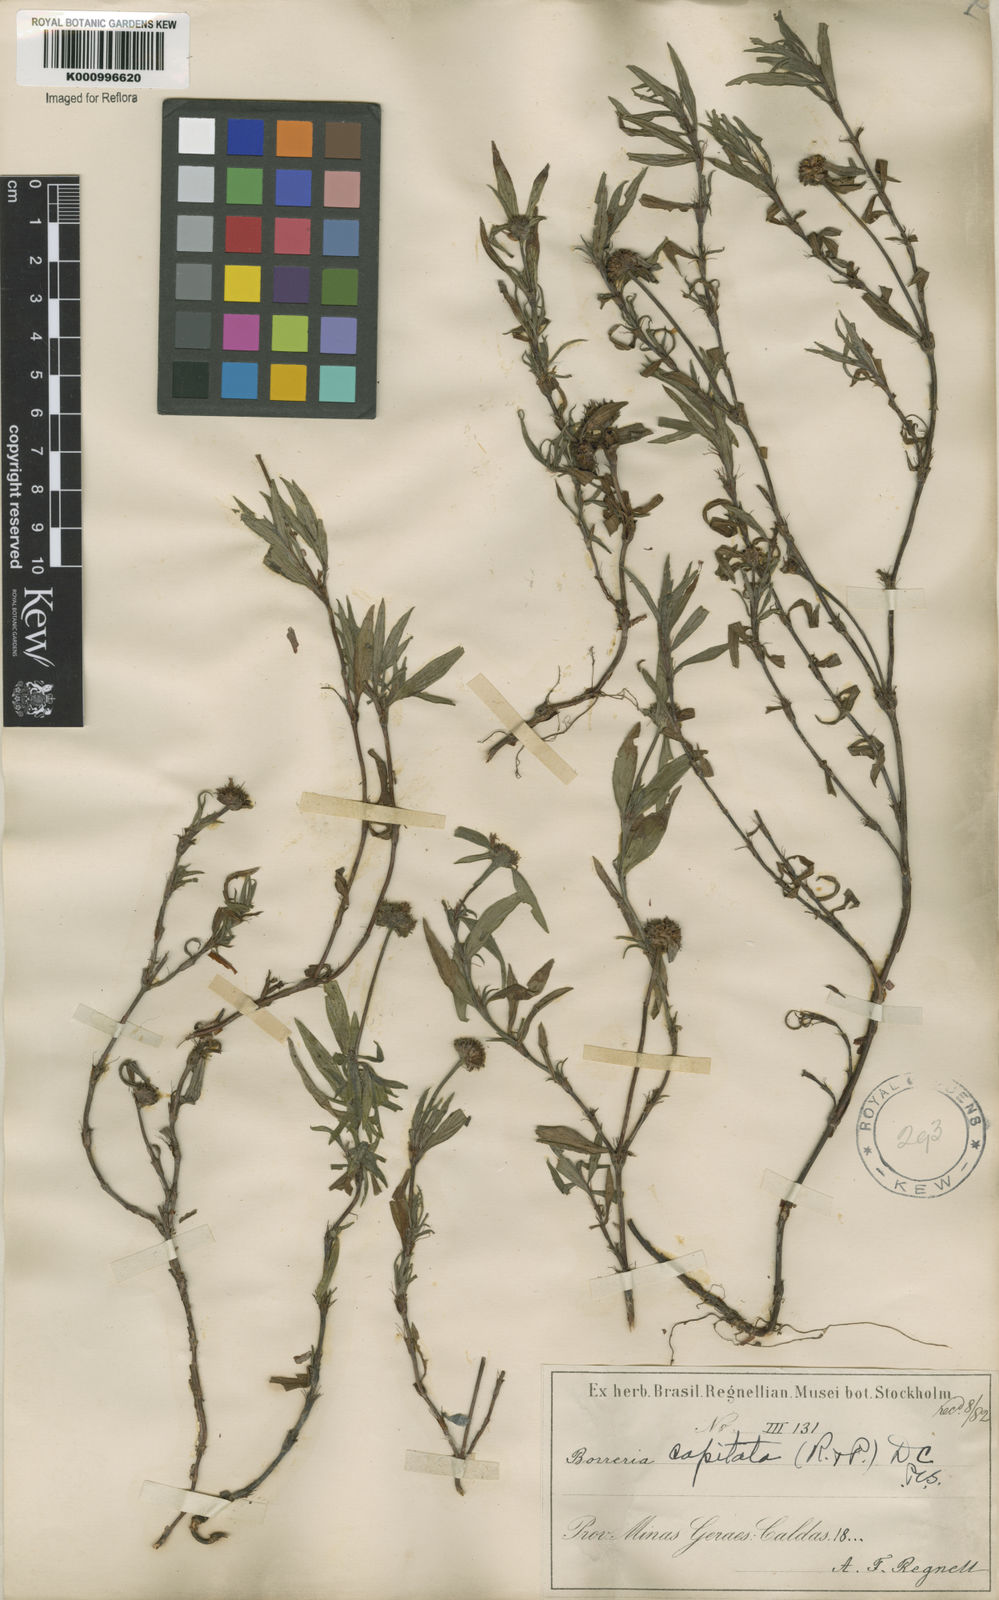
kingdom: Plantae
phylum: Tracheophyta
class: Magnoliopsida
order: Gentianales
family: Rubiaceae
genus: Spermacoce
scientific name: Spermacoce capitata
